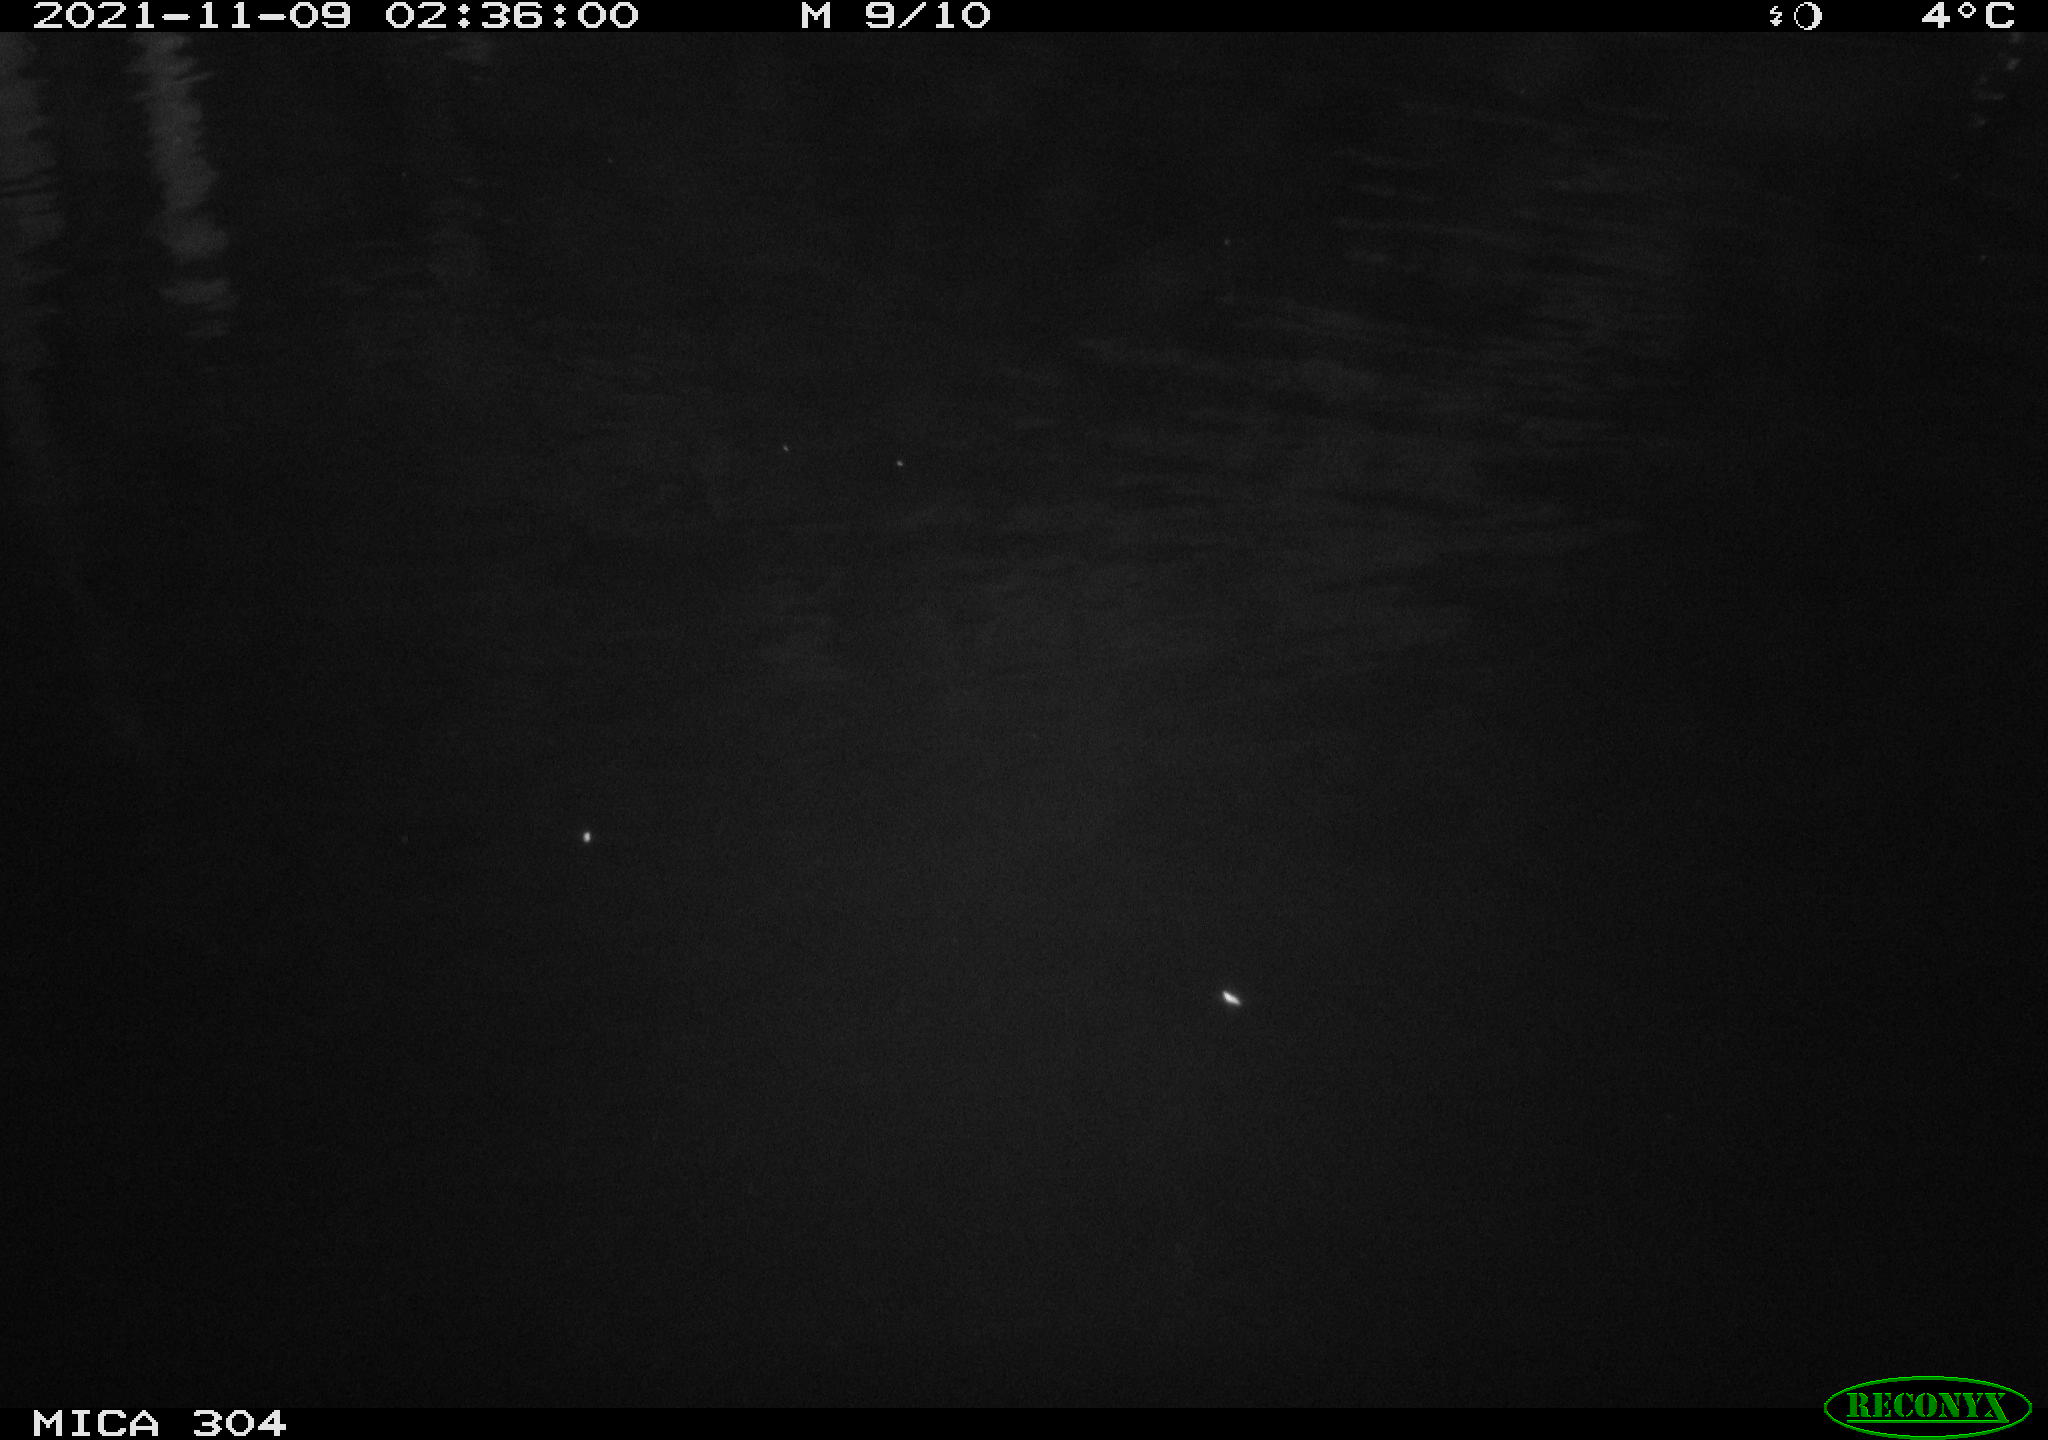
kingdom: Animalia
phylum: Chordata
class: Mammalia
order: Rodentia
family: Muridae
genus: Rattus
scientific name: Rattus norvegicus
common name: Brown rat
